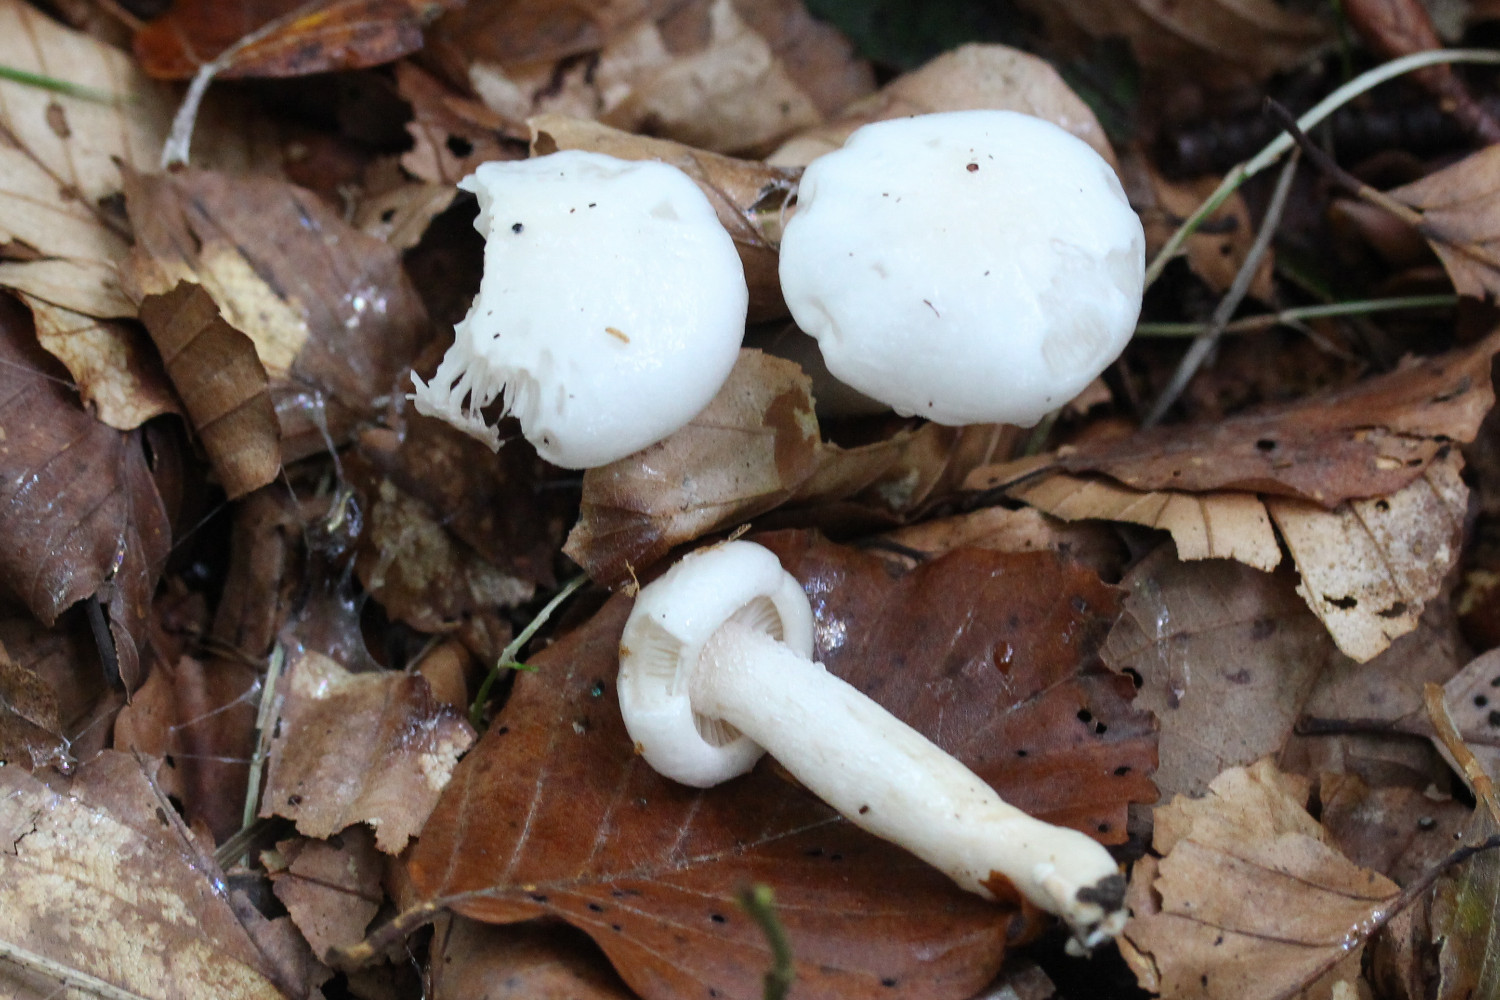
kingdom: Fungi
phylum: Basidiomycota
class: Agaricomycetes
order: Agaricales
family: Hygrophoraceae
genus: Hygrophorus
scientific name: Hygrophorus eburneus
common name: elfenbens-sneglehat
